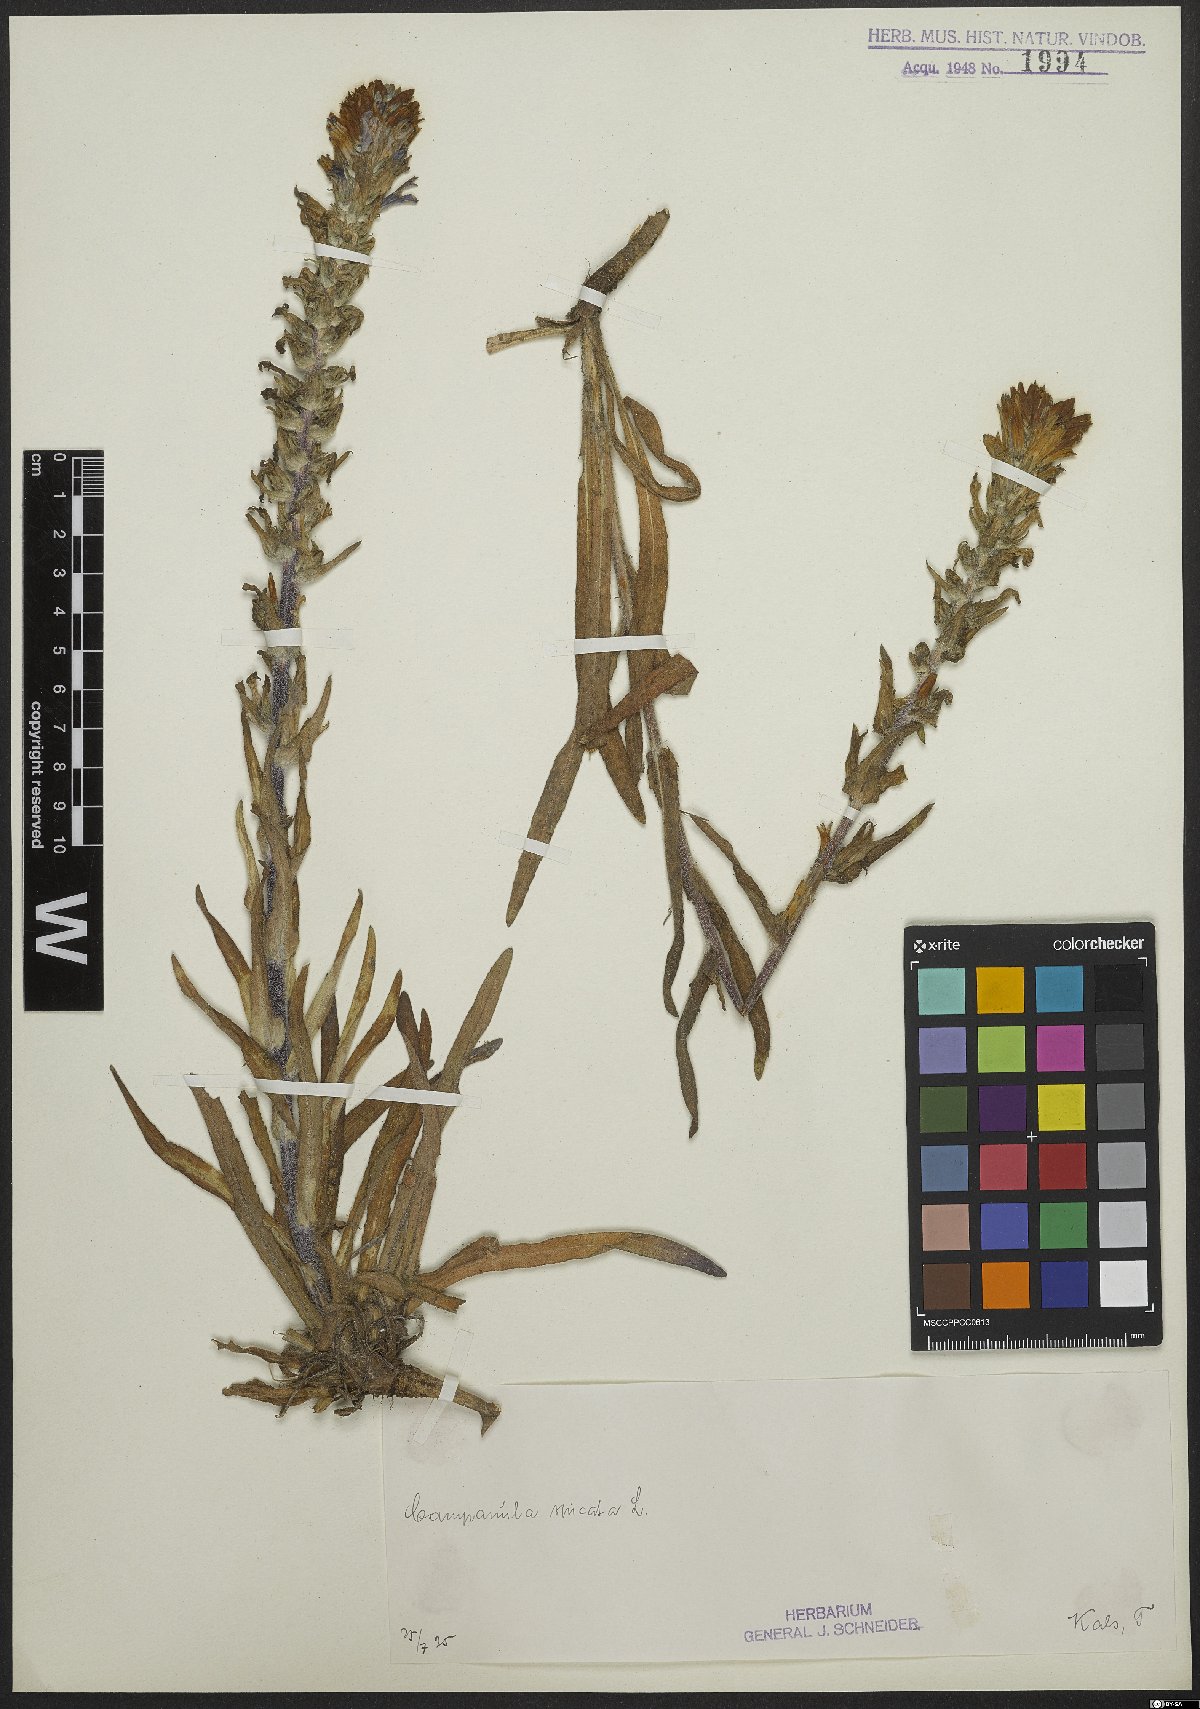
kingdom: Plantae
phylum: Tracheophyta
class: Magnoliopsida
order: Asterales
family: Campanulaceae
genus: Campanula
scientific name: Campanula spicata
